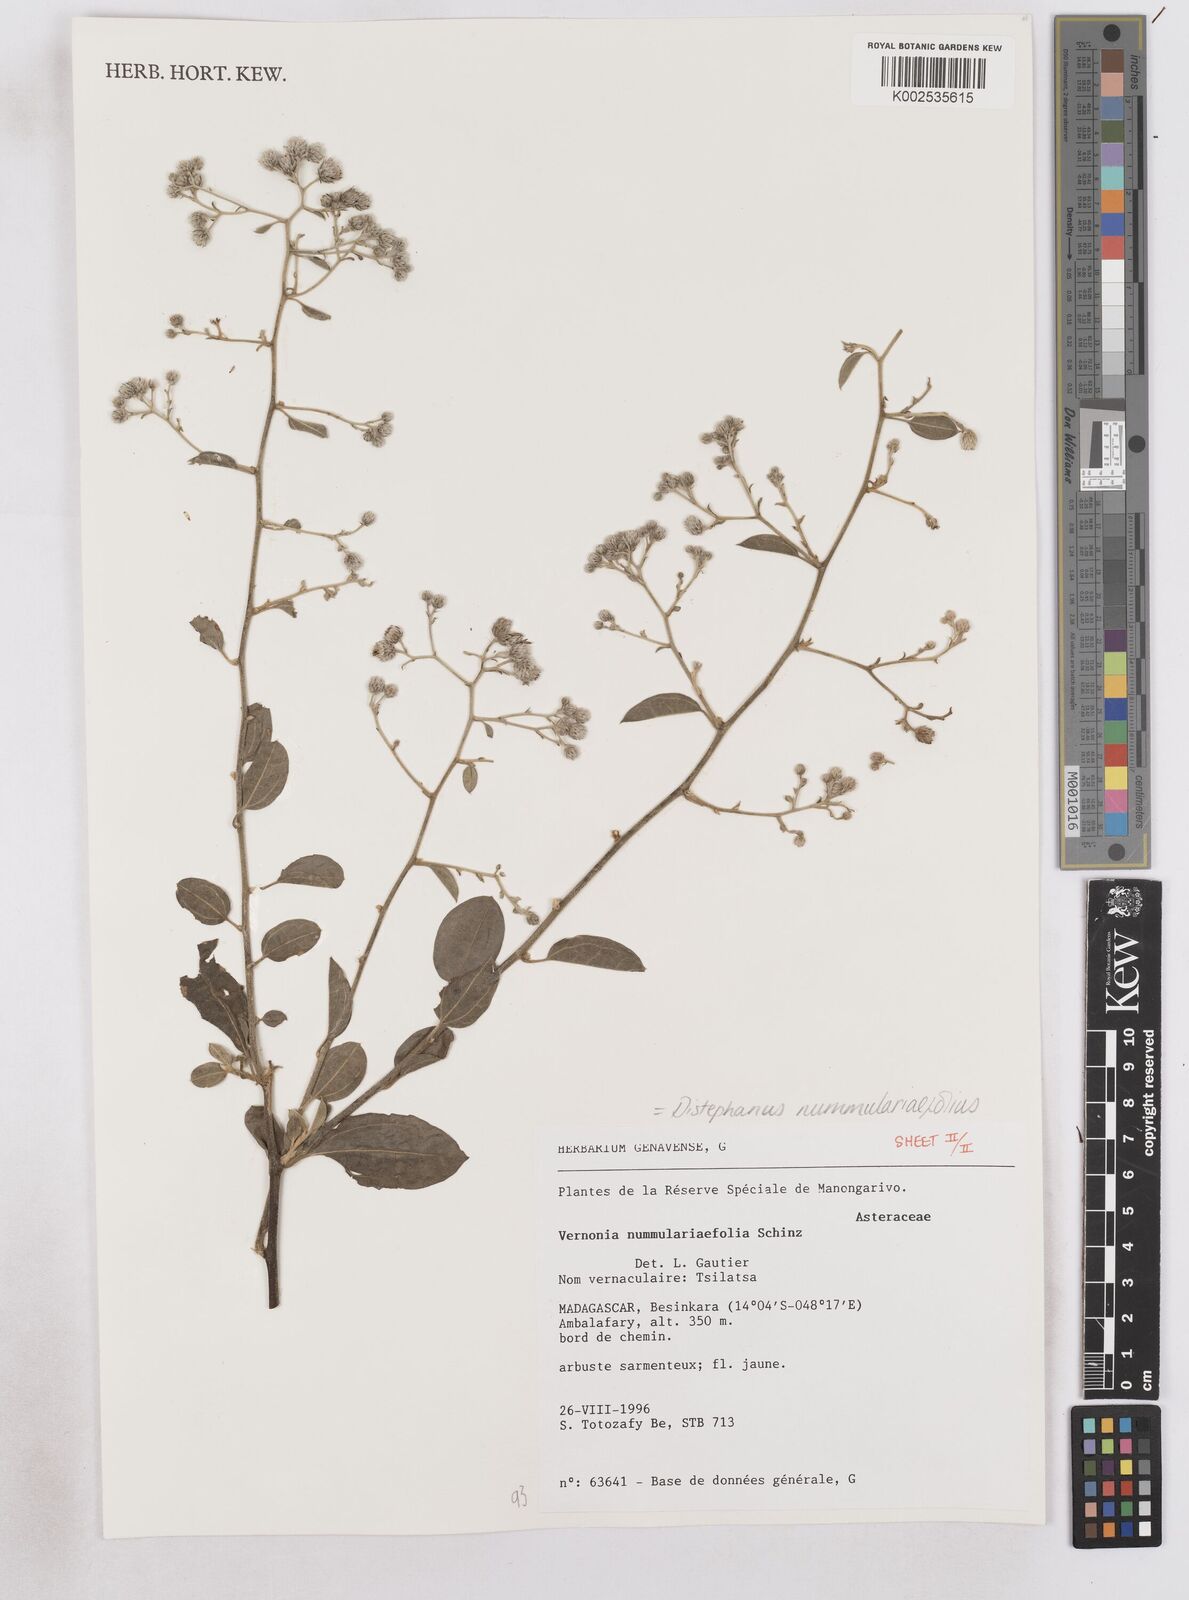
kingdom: Plantae
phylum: Tracheophyta
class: Magnoliopsida
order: Asterales
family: Asteraceae
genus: Distephanus
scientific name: Distephanus nummulariifolius
